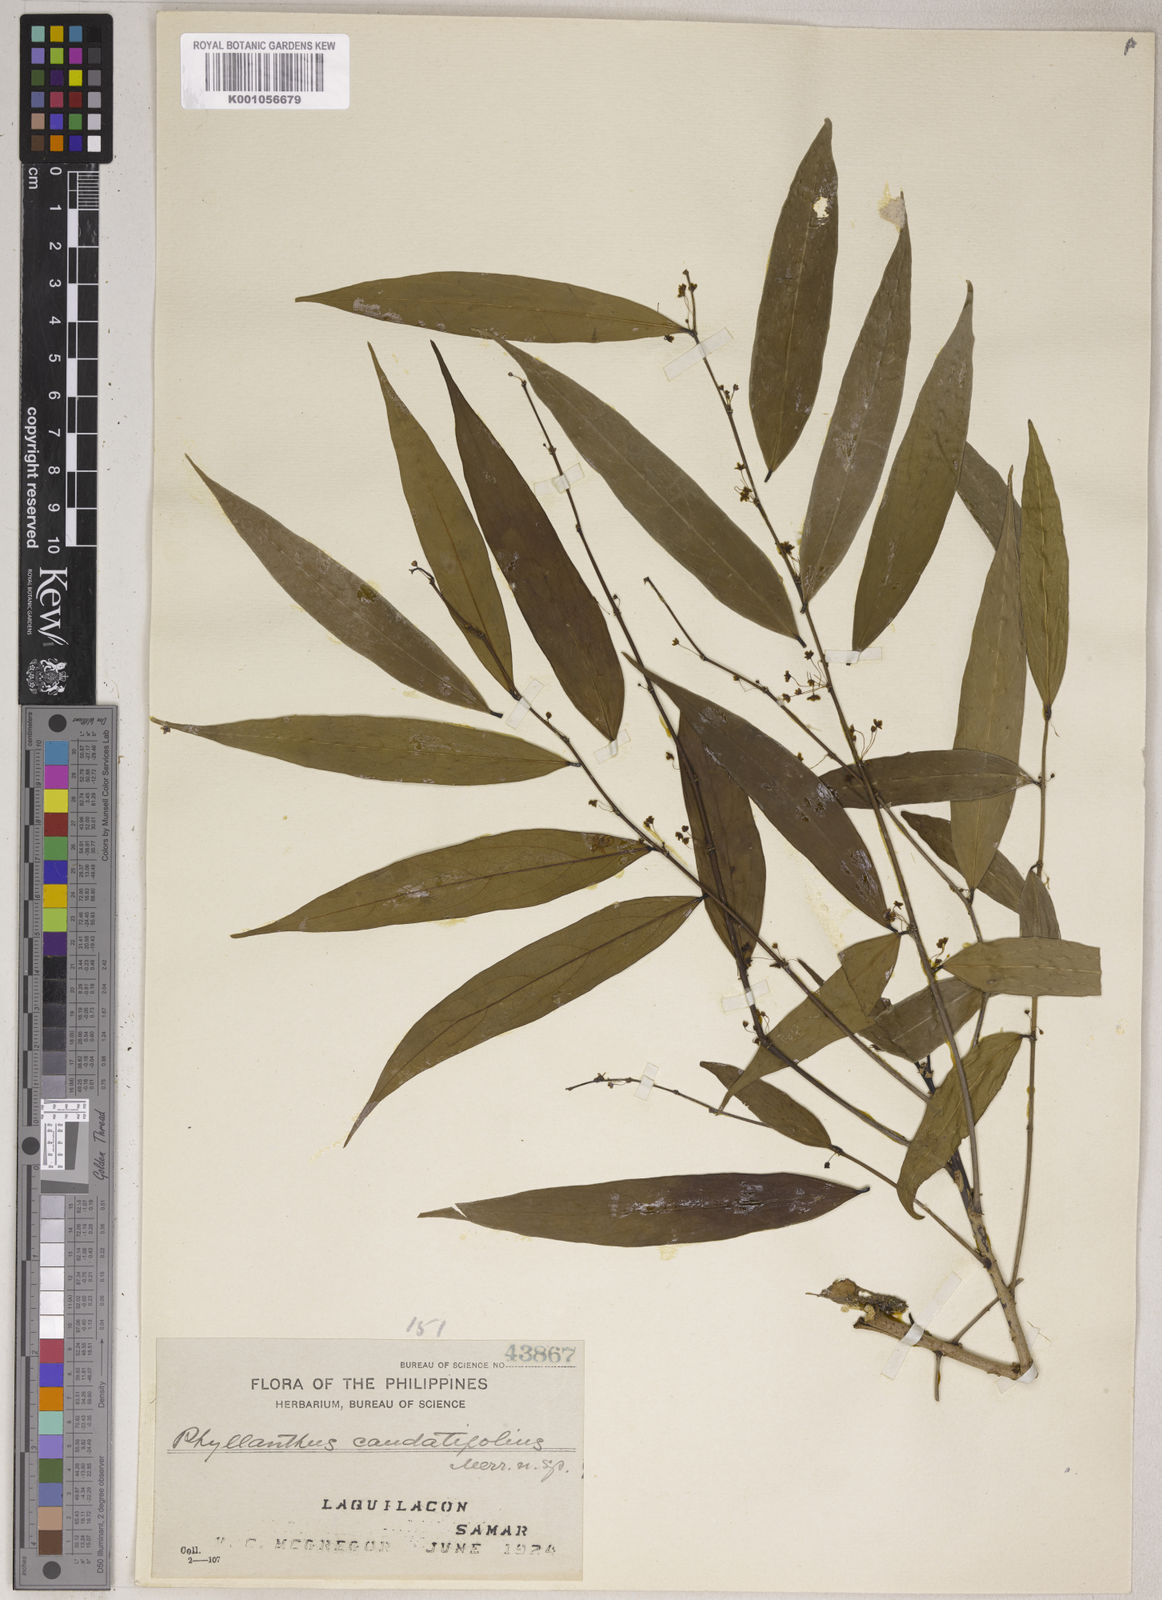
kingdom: Plantae
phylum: Tracheophyta
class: Magnoliopsida
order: Malpighiales
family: Phyllanthaceae
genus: Phyllanthus
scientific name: Phyllanthus caudatifolius
